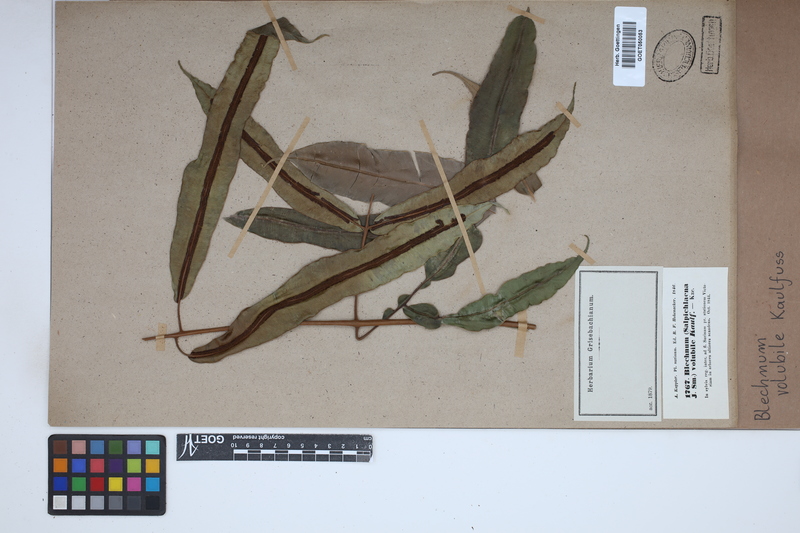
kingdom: Plantae
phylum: Tracheophyta
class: Polypodiopsida
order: Polypodiales
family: Blechnaceae
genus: Salpichlaena
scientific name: Salpichlaena volubilis
